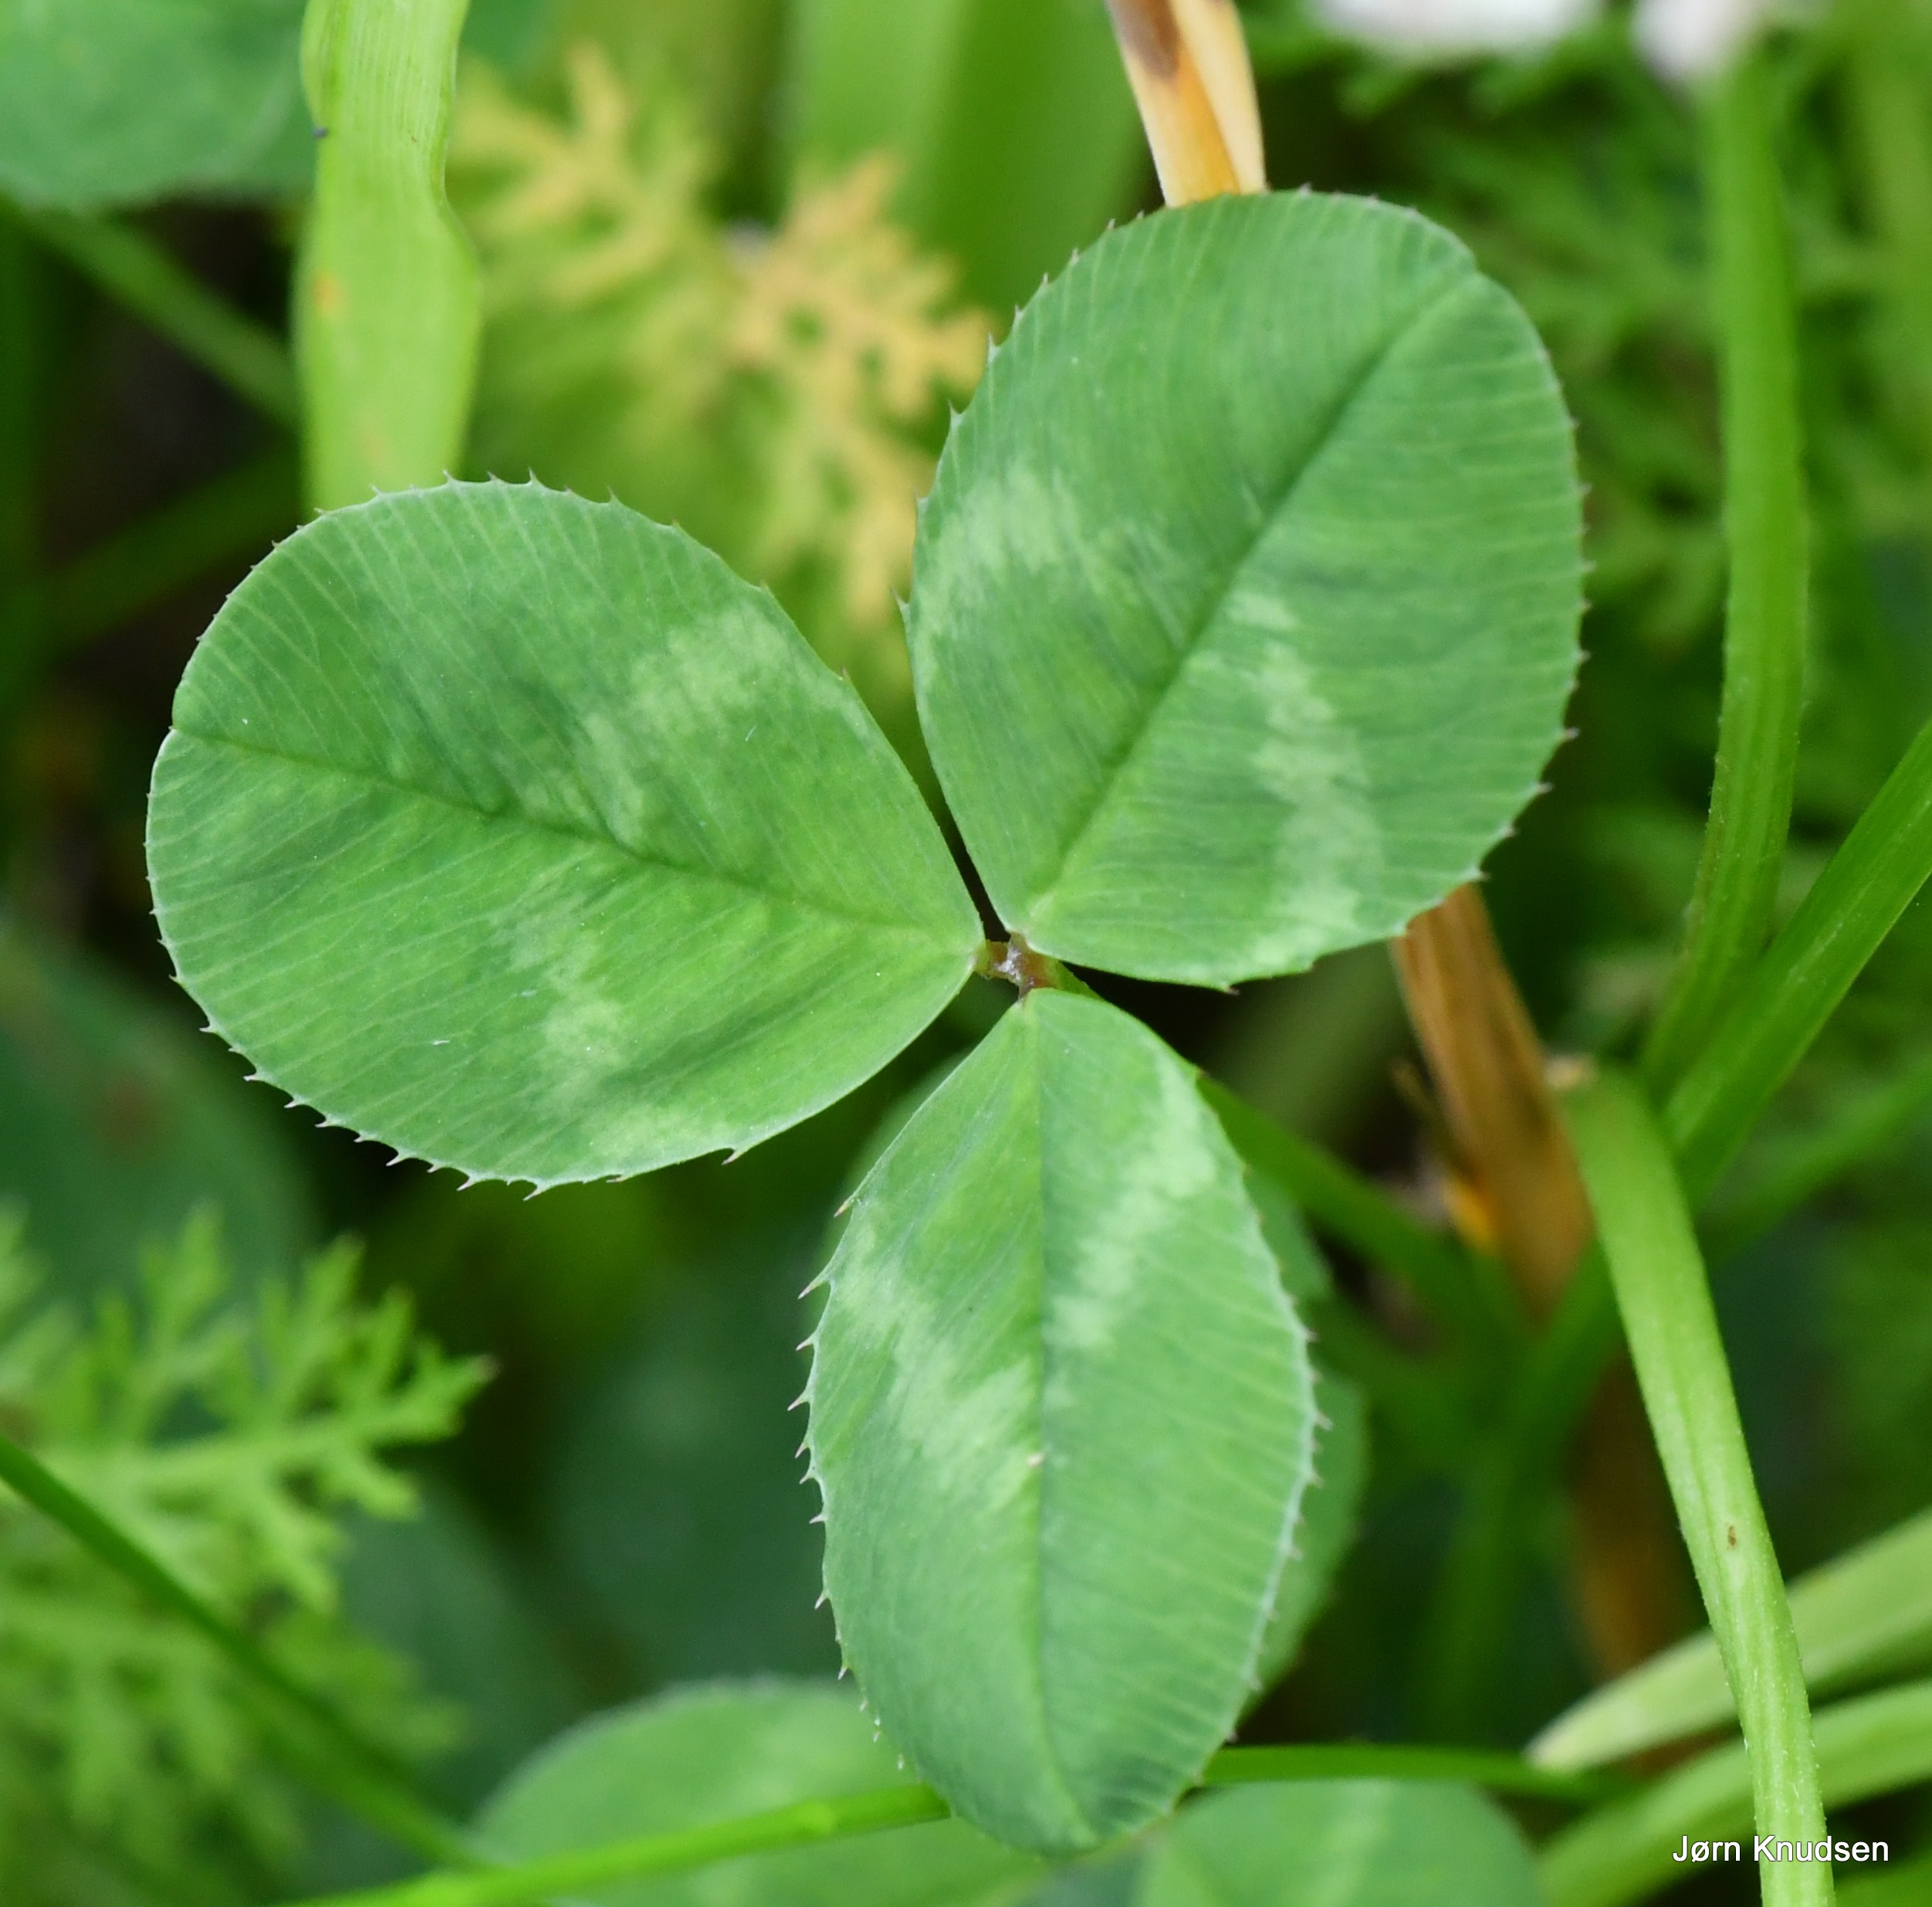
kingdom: Plantae
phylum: Tracheophyta
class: Magnoliopsida
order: Fabales
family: Fabaceae
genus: Trifolium
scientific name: Trifolium repens
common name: Hvid-kløver
